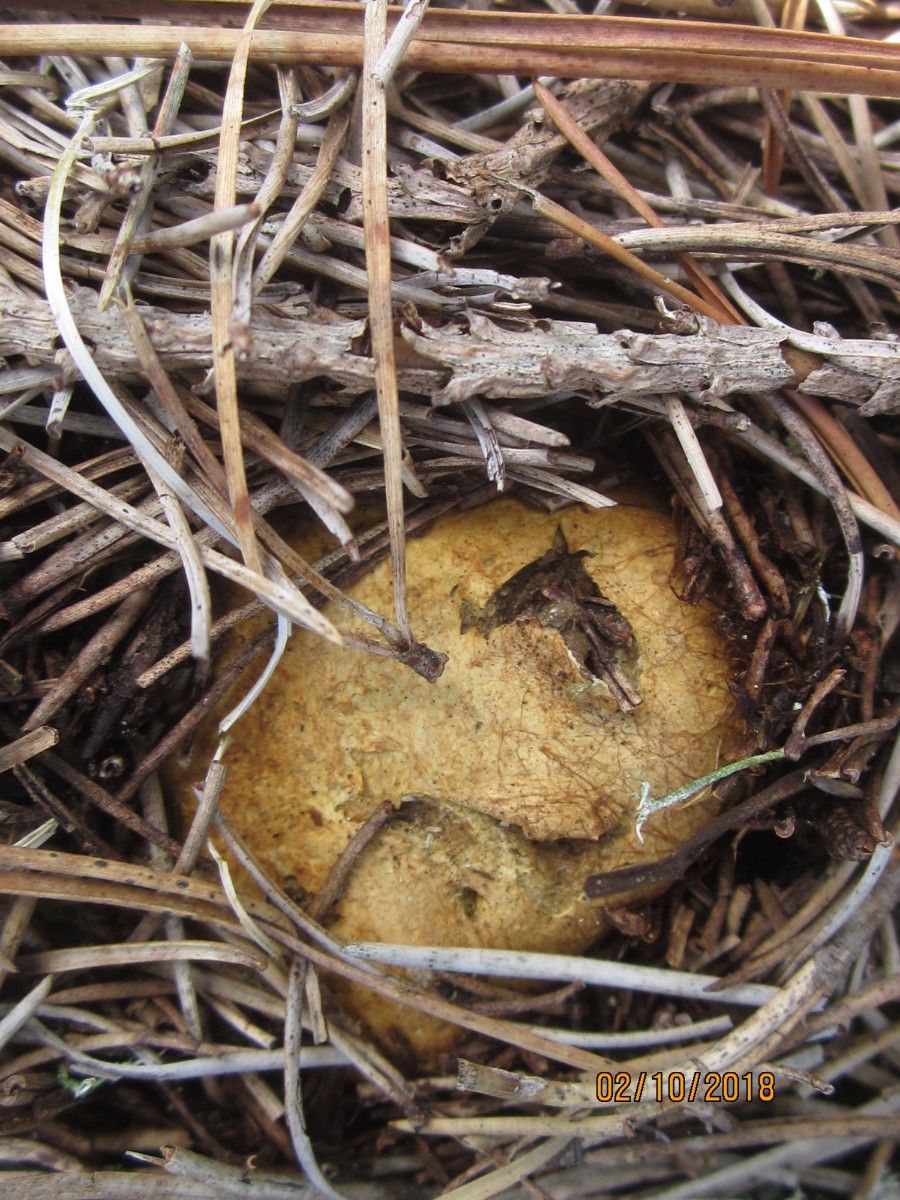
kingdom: Fungi
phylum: Basidiomycota
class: Agaricomycetes
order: Boletales
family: Rhizopogonaceae
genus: Rhizopogon
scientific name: Rhizopogon obtextus
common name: gul skægtrøffel
